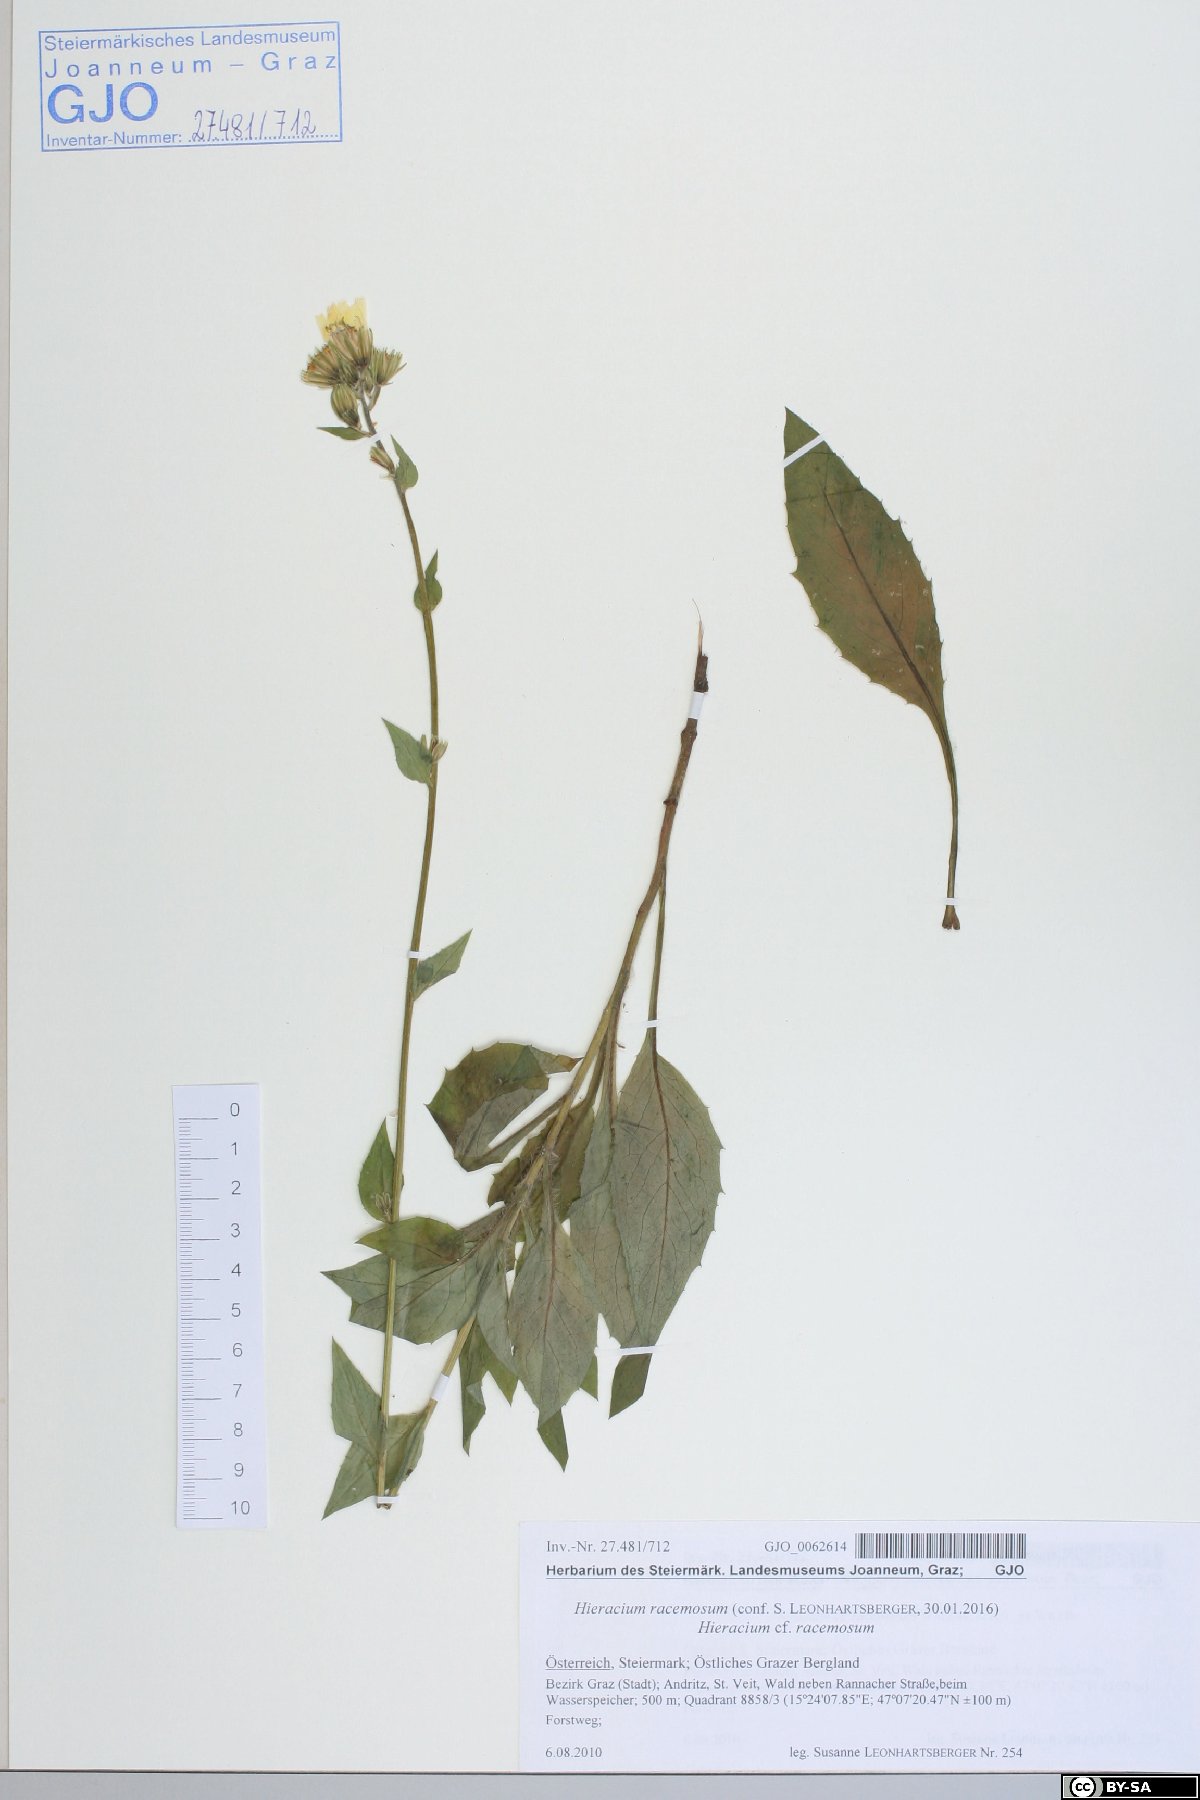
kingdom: Plantae
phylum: Tracheophyta
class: Magnoliopsida
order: Asterales
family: Asteraceae
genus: Hieracium
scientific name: Hieracium racemosum
